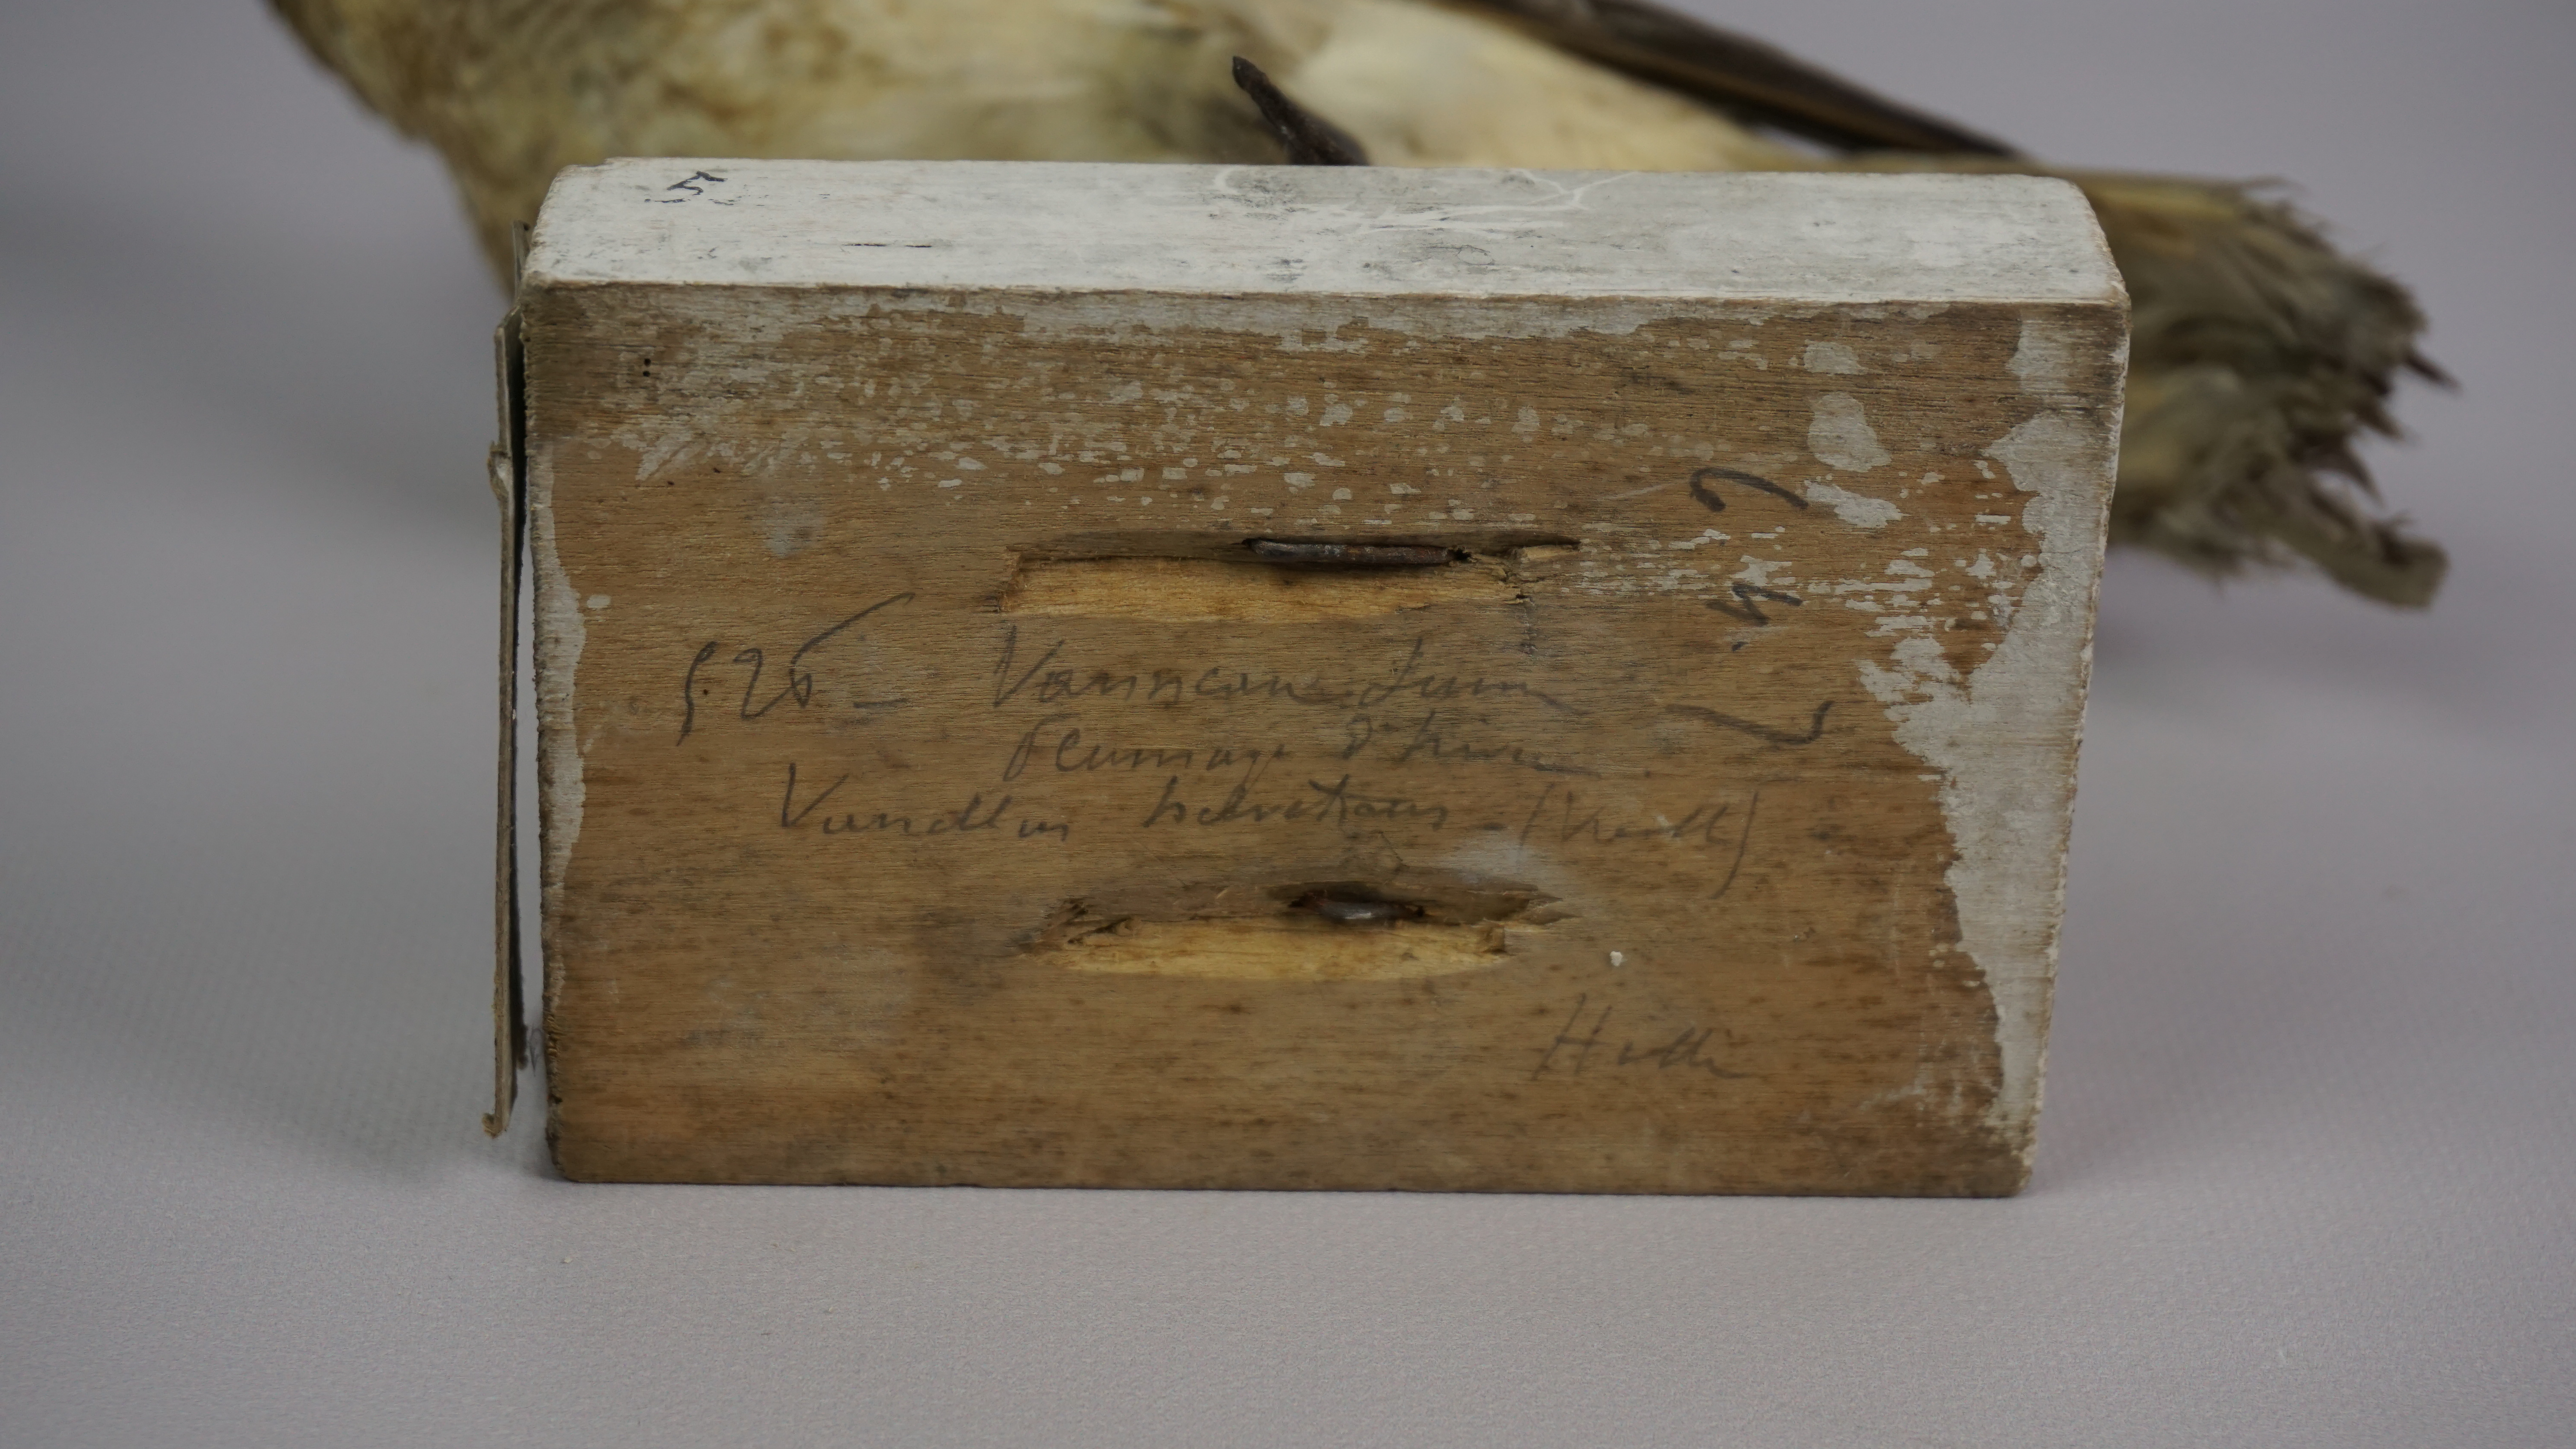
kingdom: Animalia
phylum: Chordata
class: Aves
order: Charadriiformes
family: Charadriidae
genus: Pluvialis
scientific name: Pluvialis squatarola
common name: Grey plover
